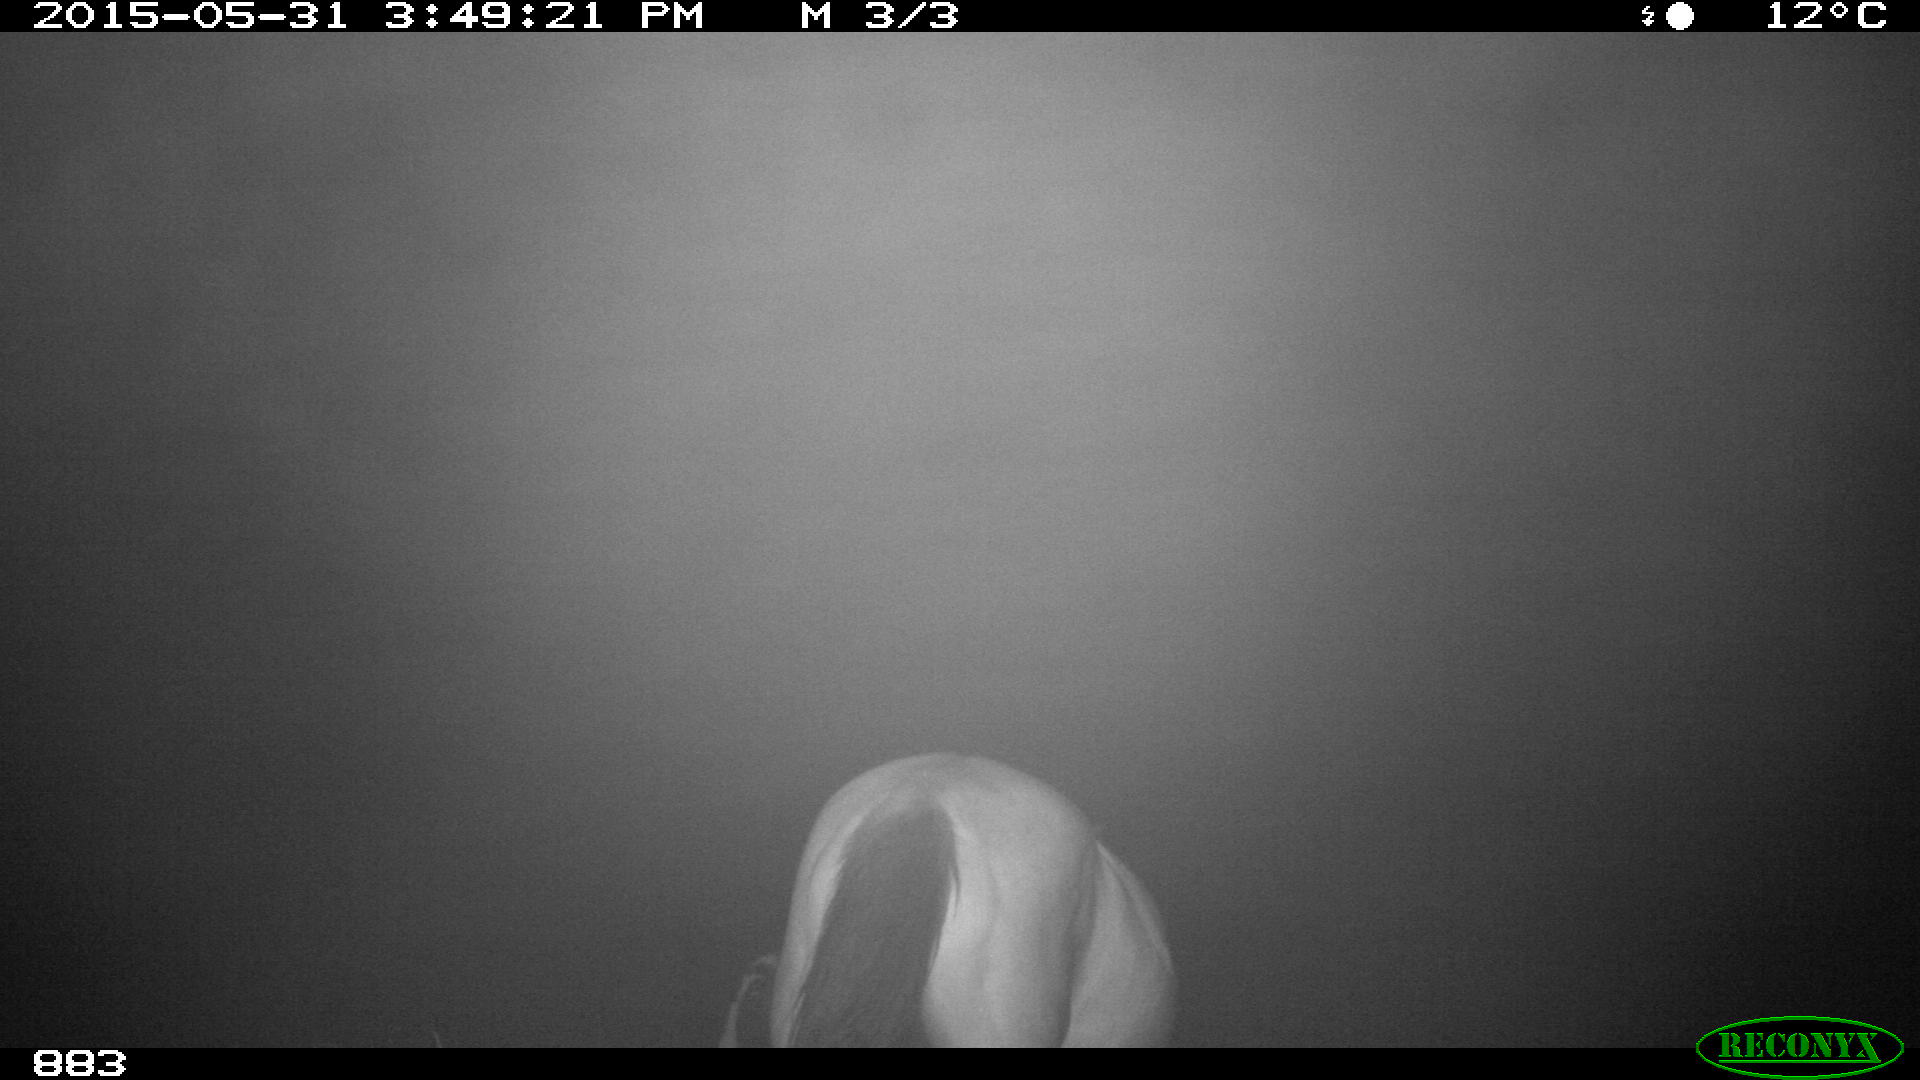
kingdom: Animalia
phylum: Chordata
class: Mammalia
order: Perissodactyla
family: Equidae
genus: Equus
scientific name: Equus caballus
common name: Horse
